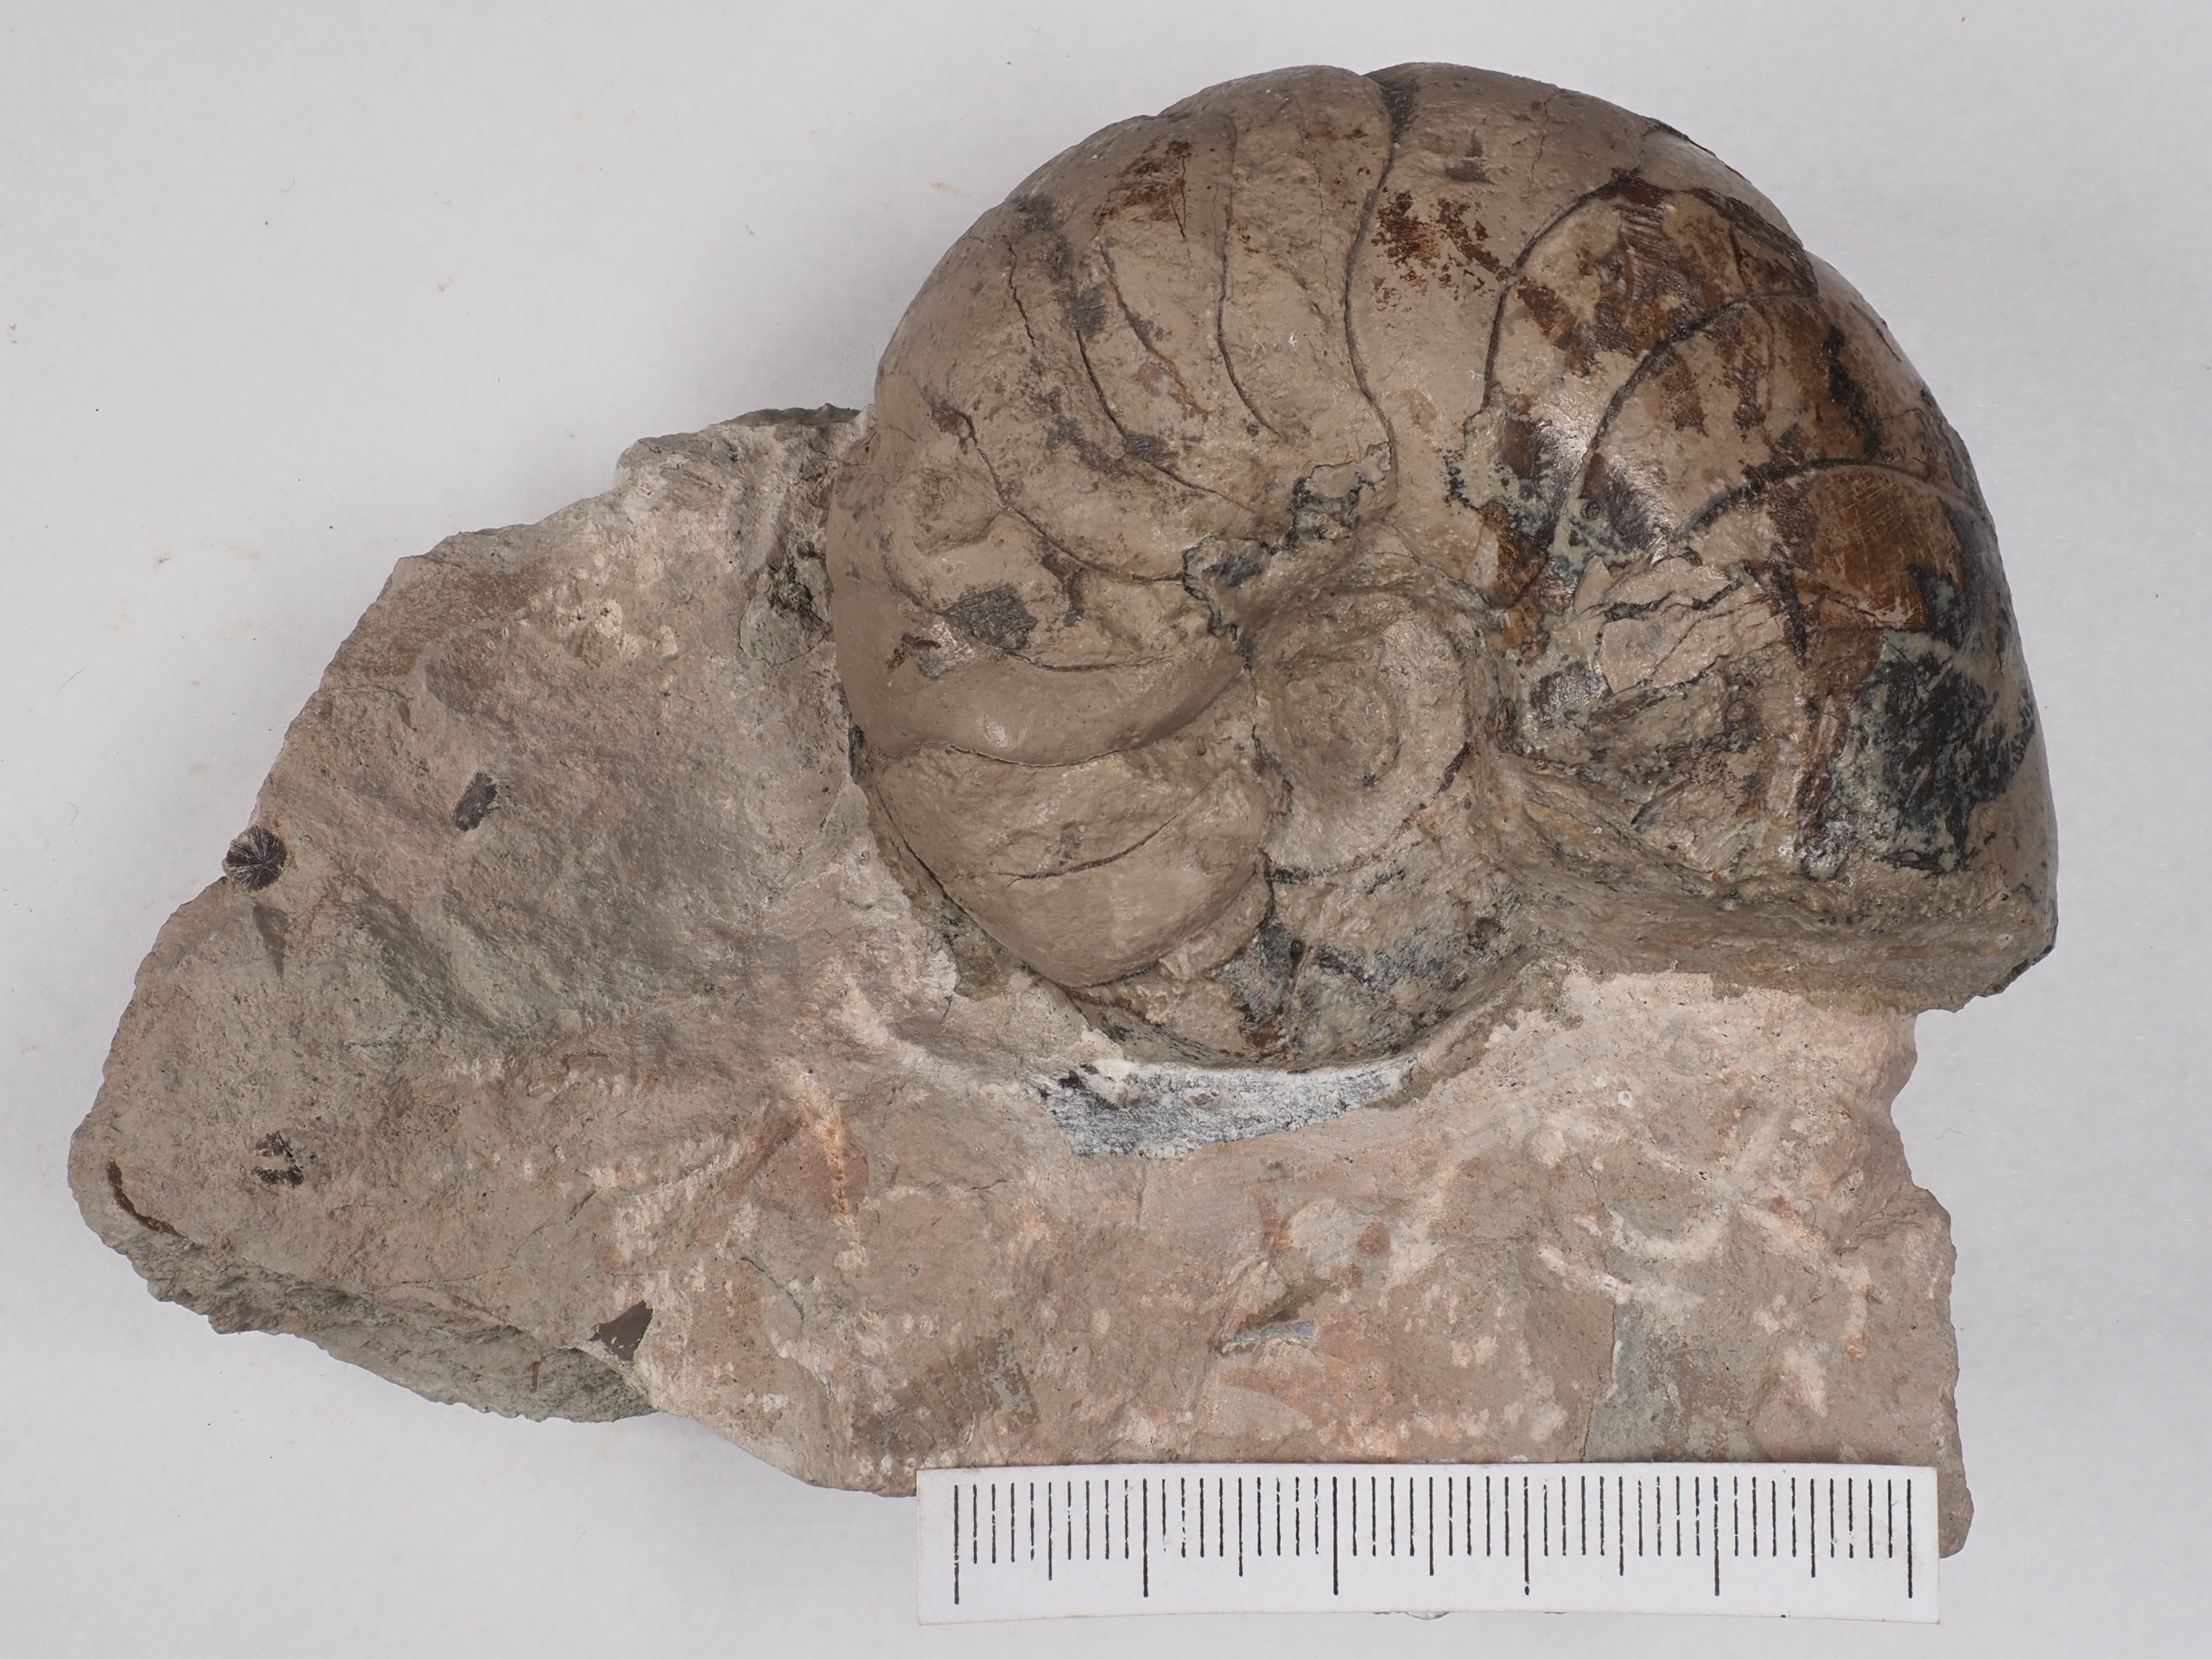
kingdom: Animalia
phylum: Mollusca
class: Cephalopoda
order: Nautilida
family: Nautilidae
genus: Cenoceras
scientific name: Cenoceras
